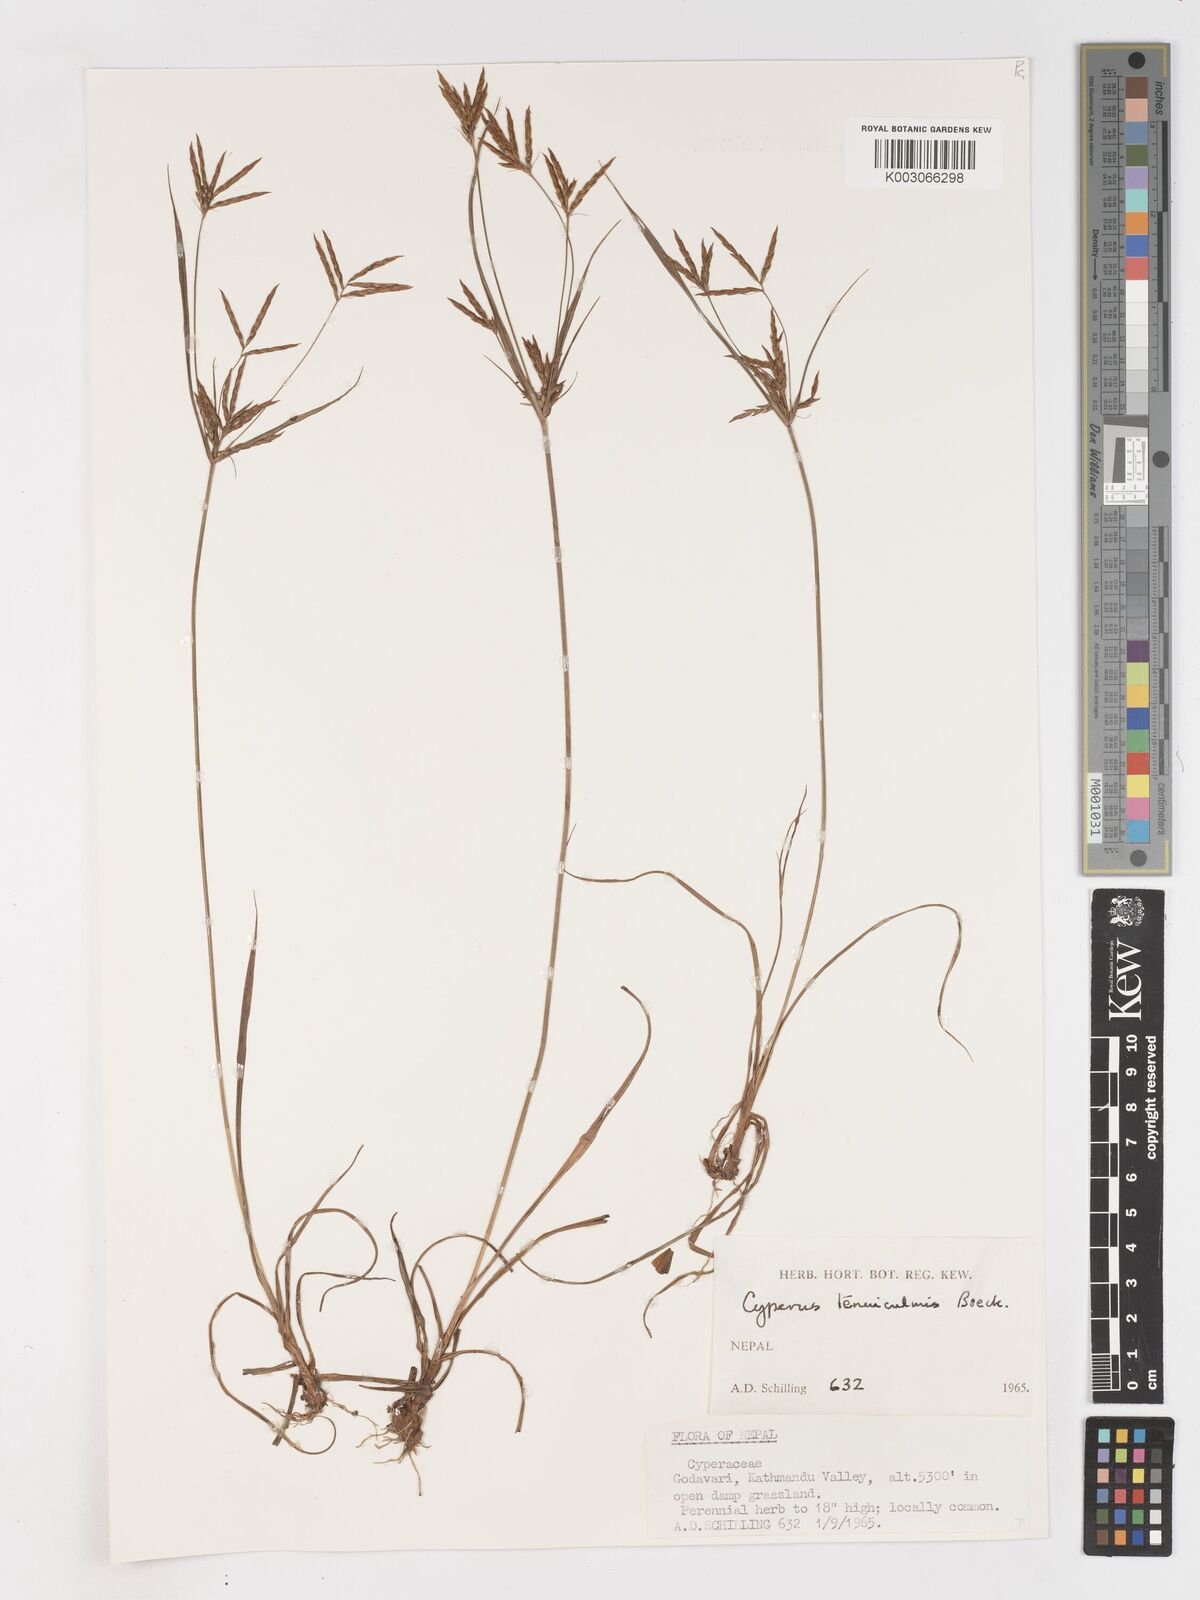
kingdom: Plantae
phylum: Tracheophyta
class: Liliopsida
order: Poales
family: Cyperaceae
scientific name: Cyperaceae
